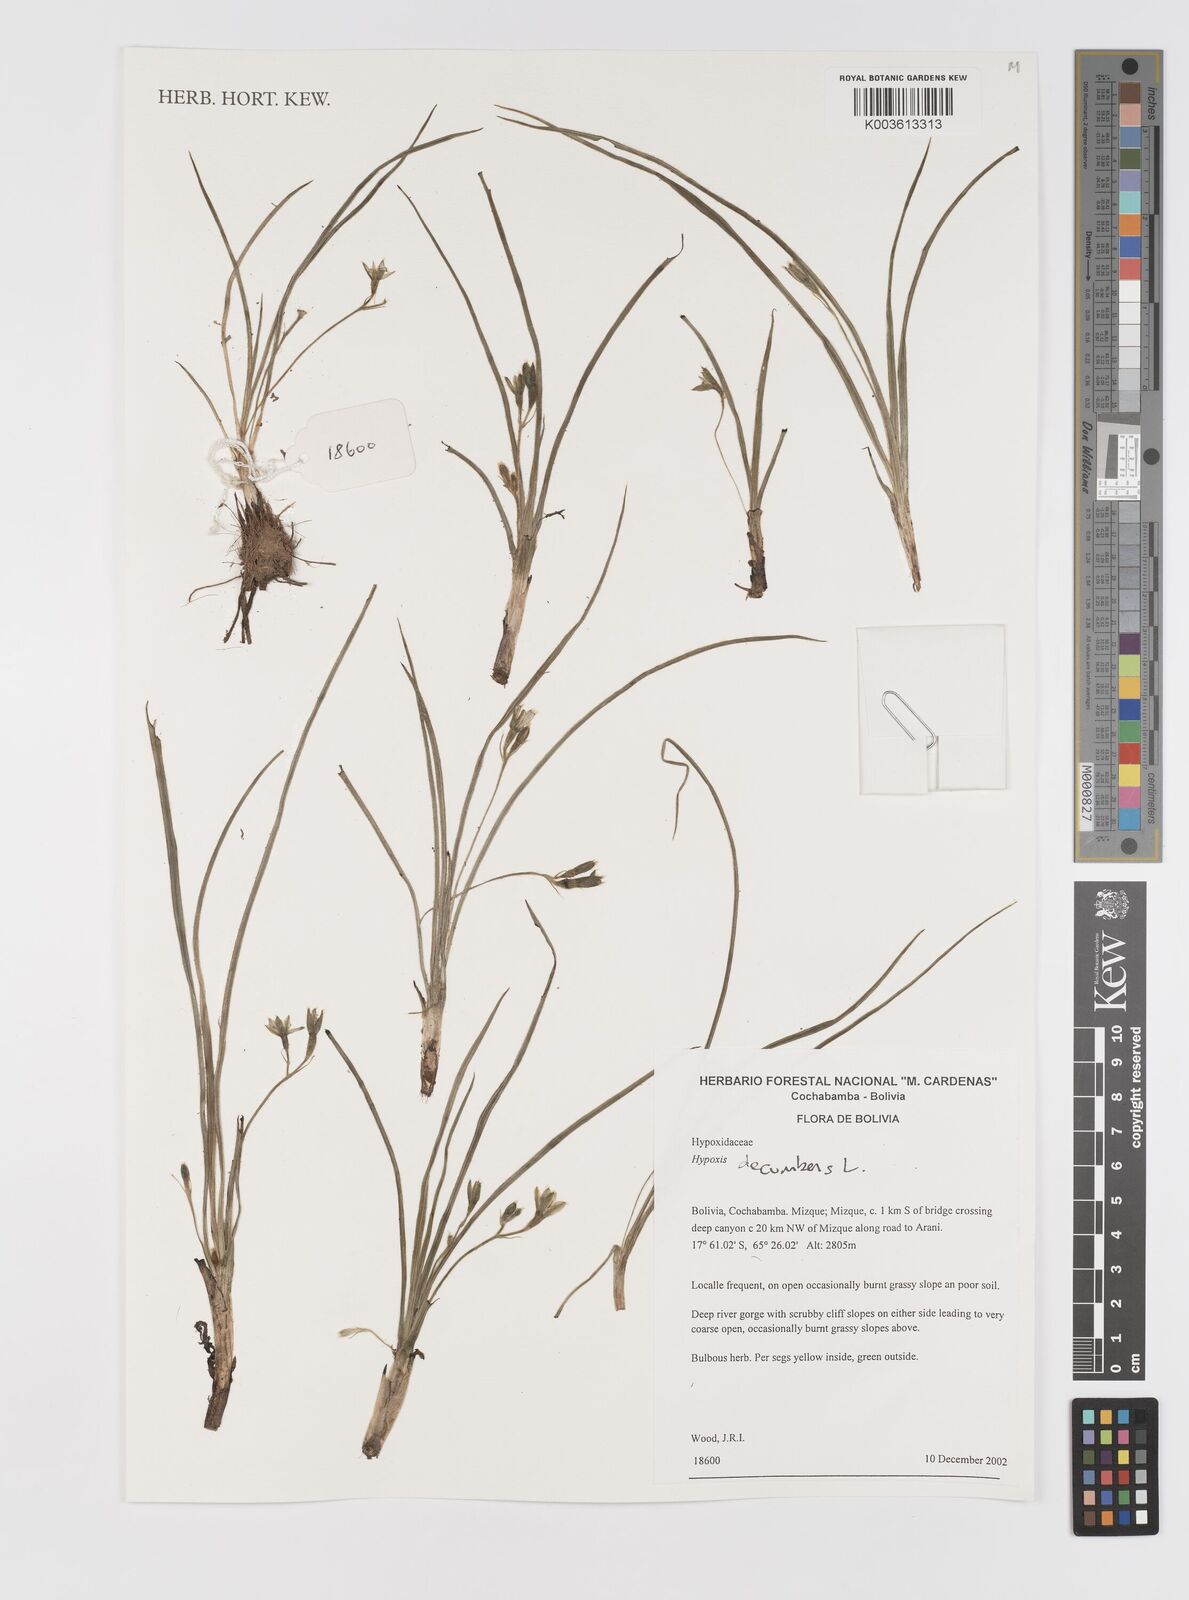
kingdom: Plantae
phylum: Tracheophyta
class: Liliopsida
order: Asparagales
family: Hypoxidaceae
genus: Hypoxis
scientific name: Hypoxis decumbens
